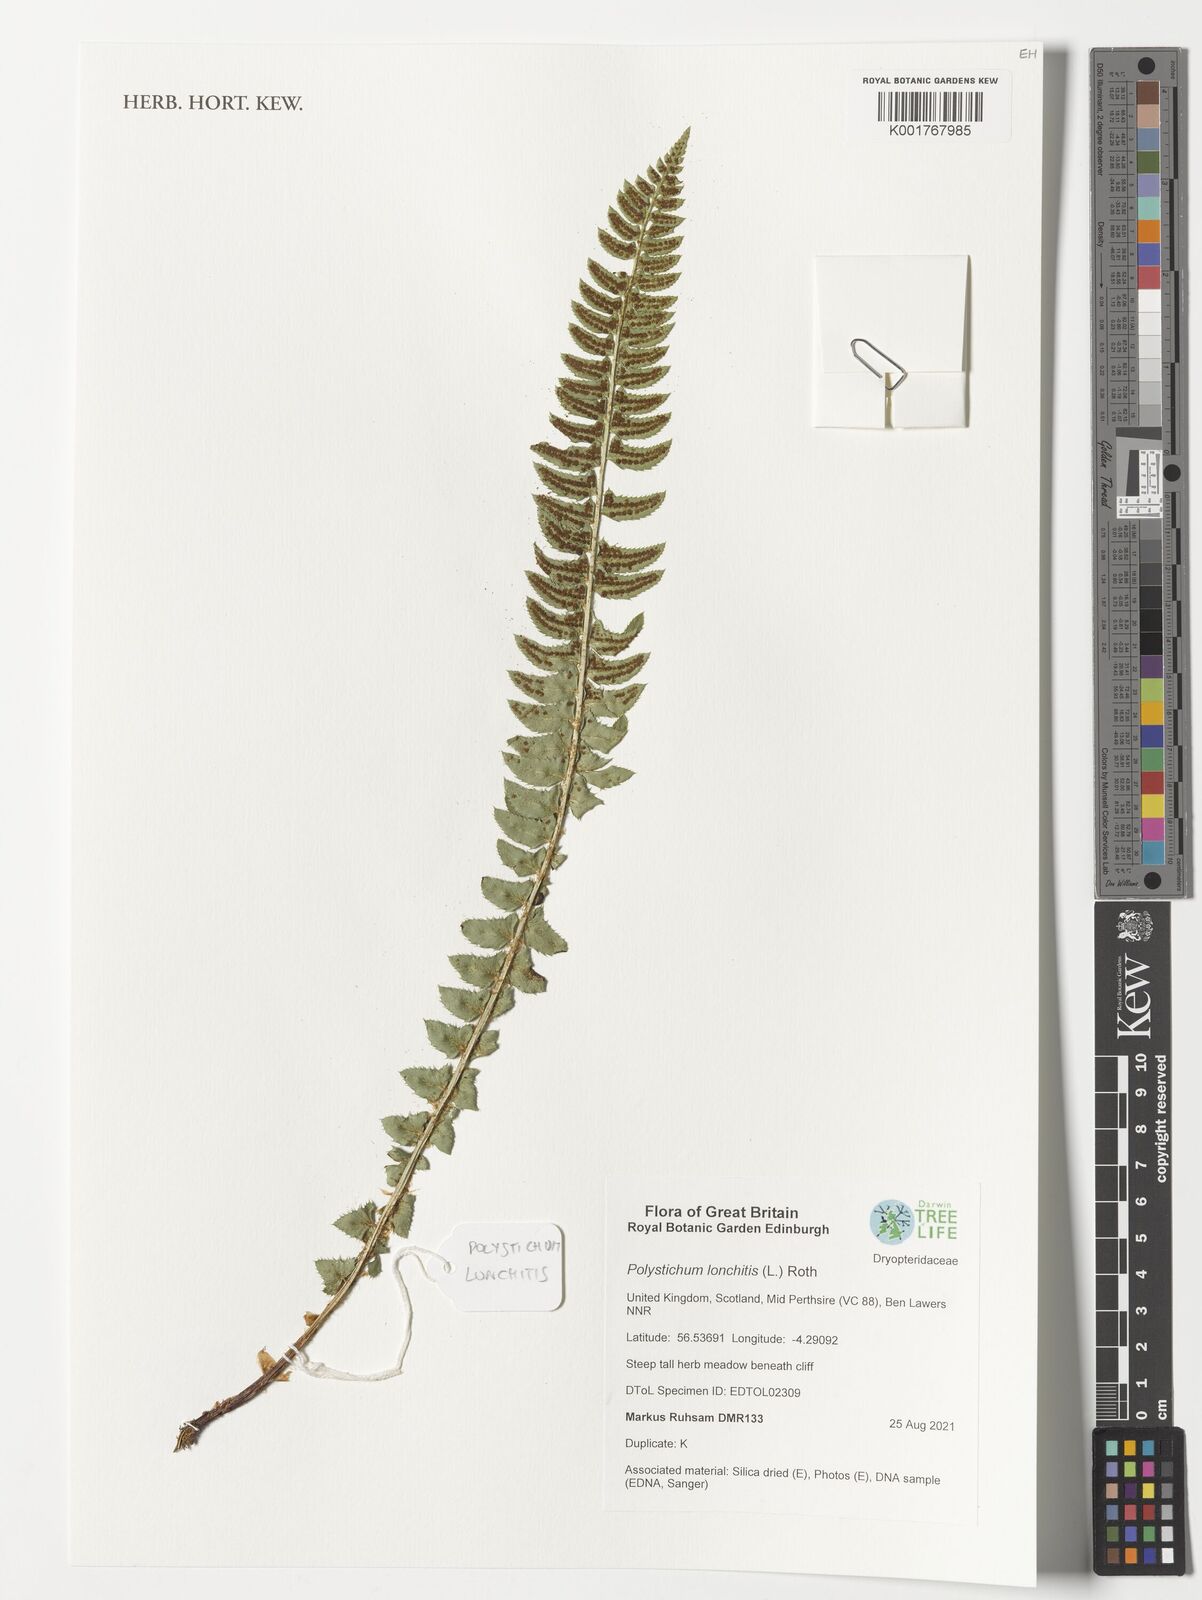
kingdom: Plantae
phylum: Tracheophyta
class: Polypodiopsida
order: Polypodiales
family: Dryopteridaceae
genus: Polystichum
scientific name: Polystichum lonchitis
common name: Holly fern
